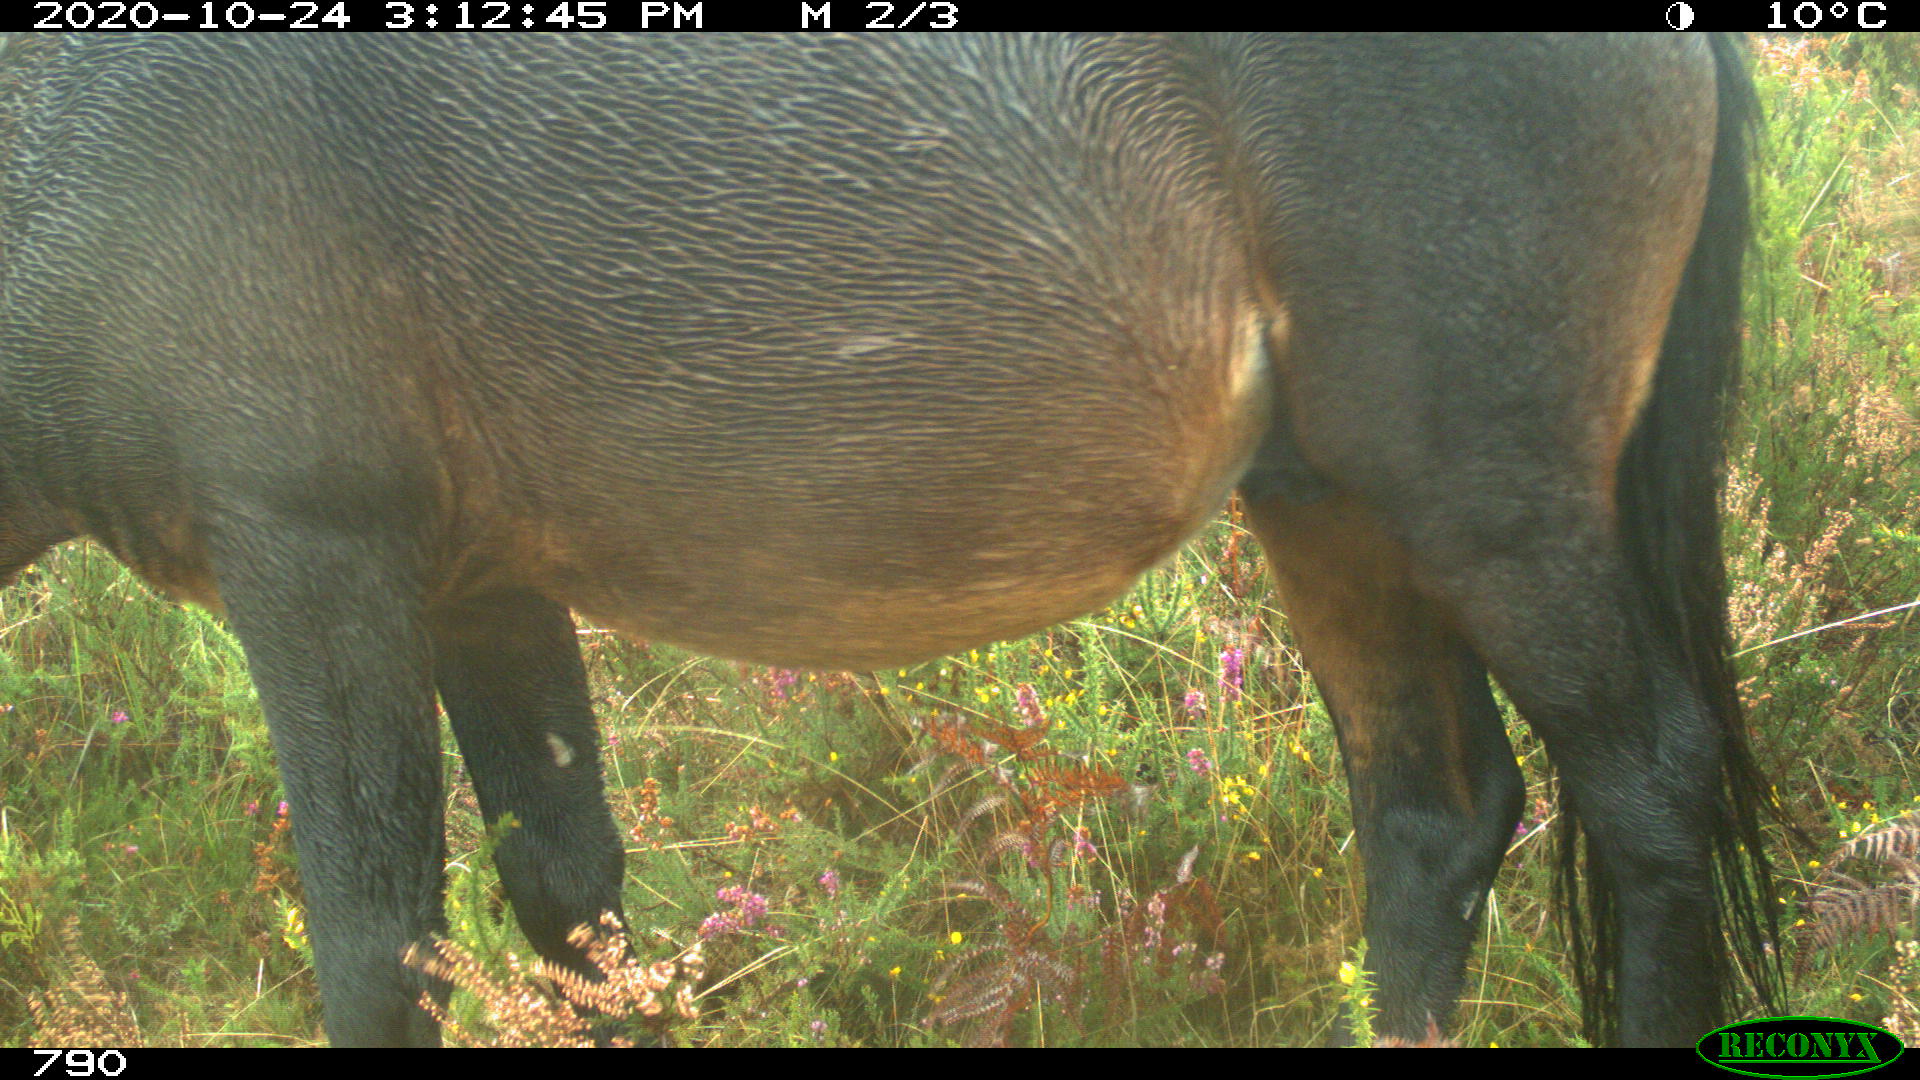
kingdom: Animalia
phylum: Chordata
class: Mammalia
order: Perissodactyla
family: Equidae
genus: Equus
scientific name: Equus caballus
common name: Horse
